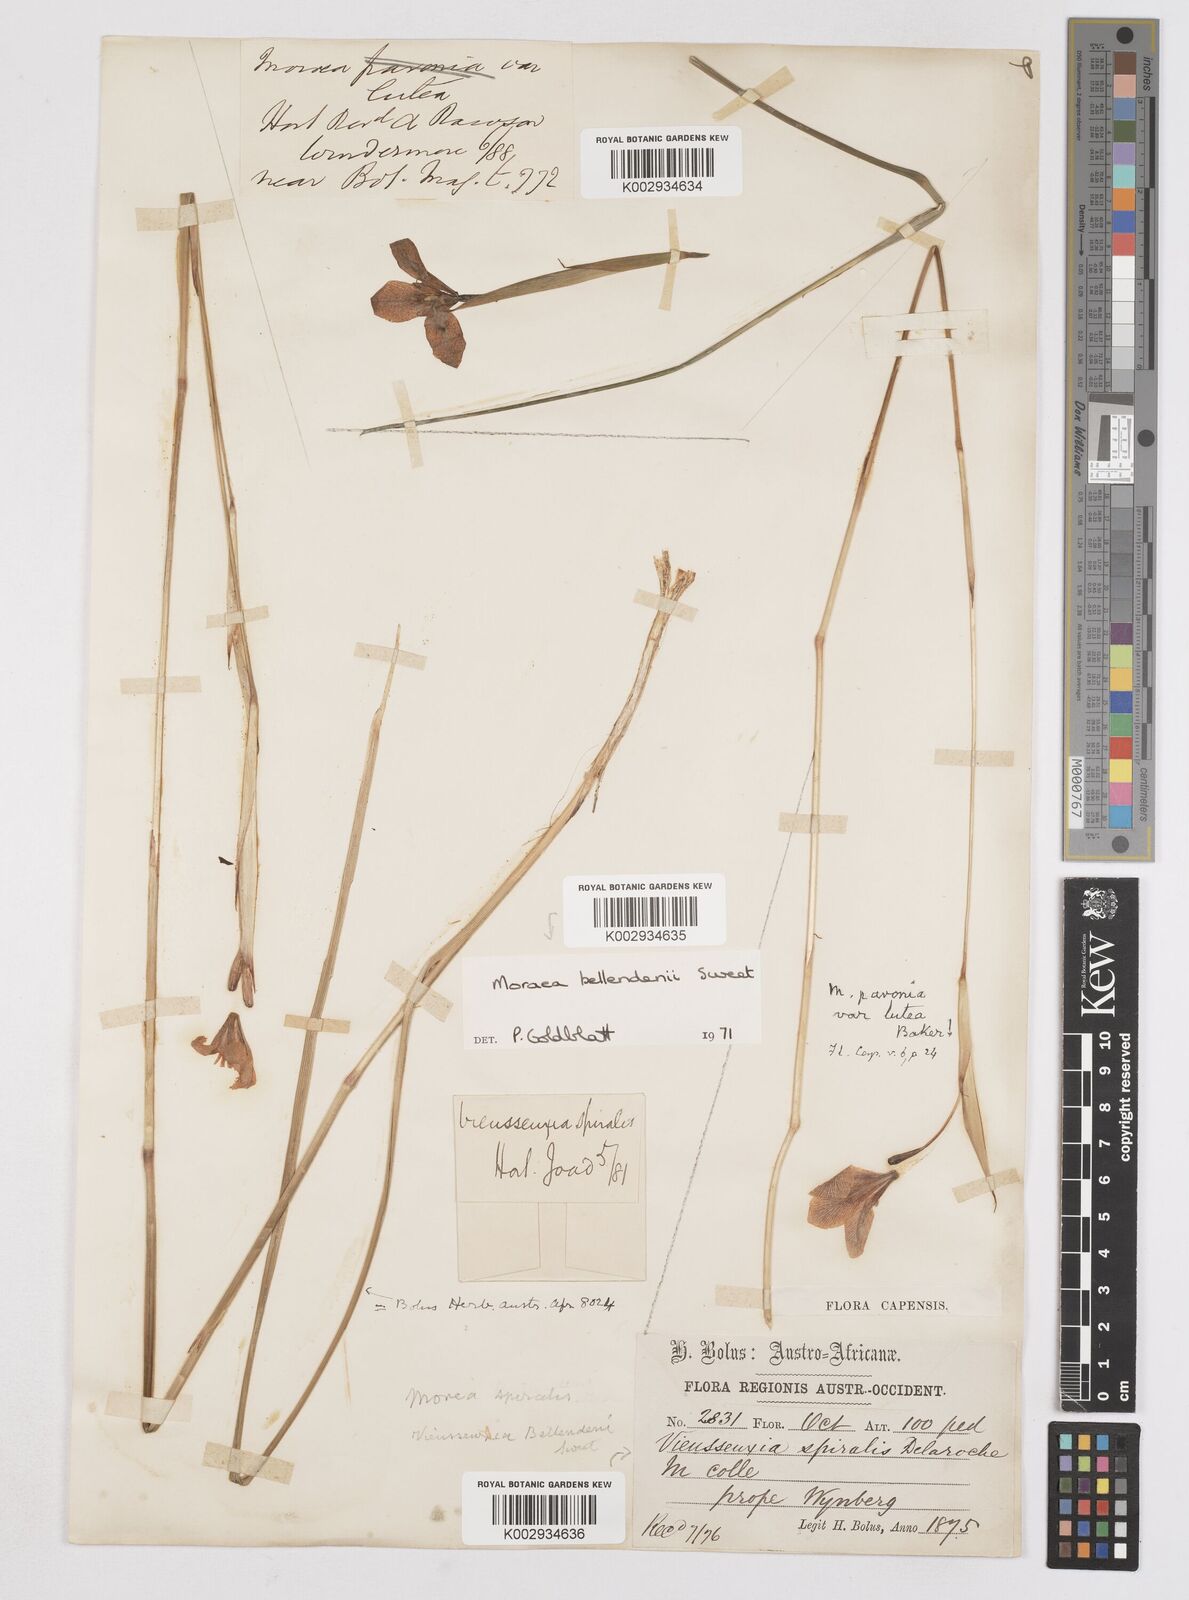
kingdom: Plantae
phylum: Tracheophyta
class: Liliopsida
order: Asparagales
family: Iridaceae
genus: Moraea
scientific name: Moraea bellendenii
